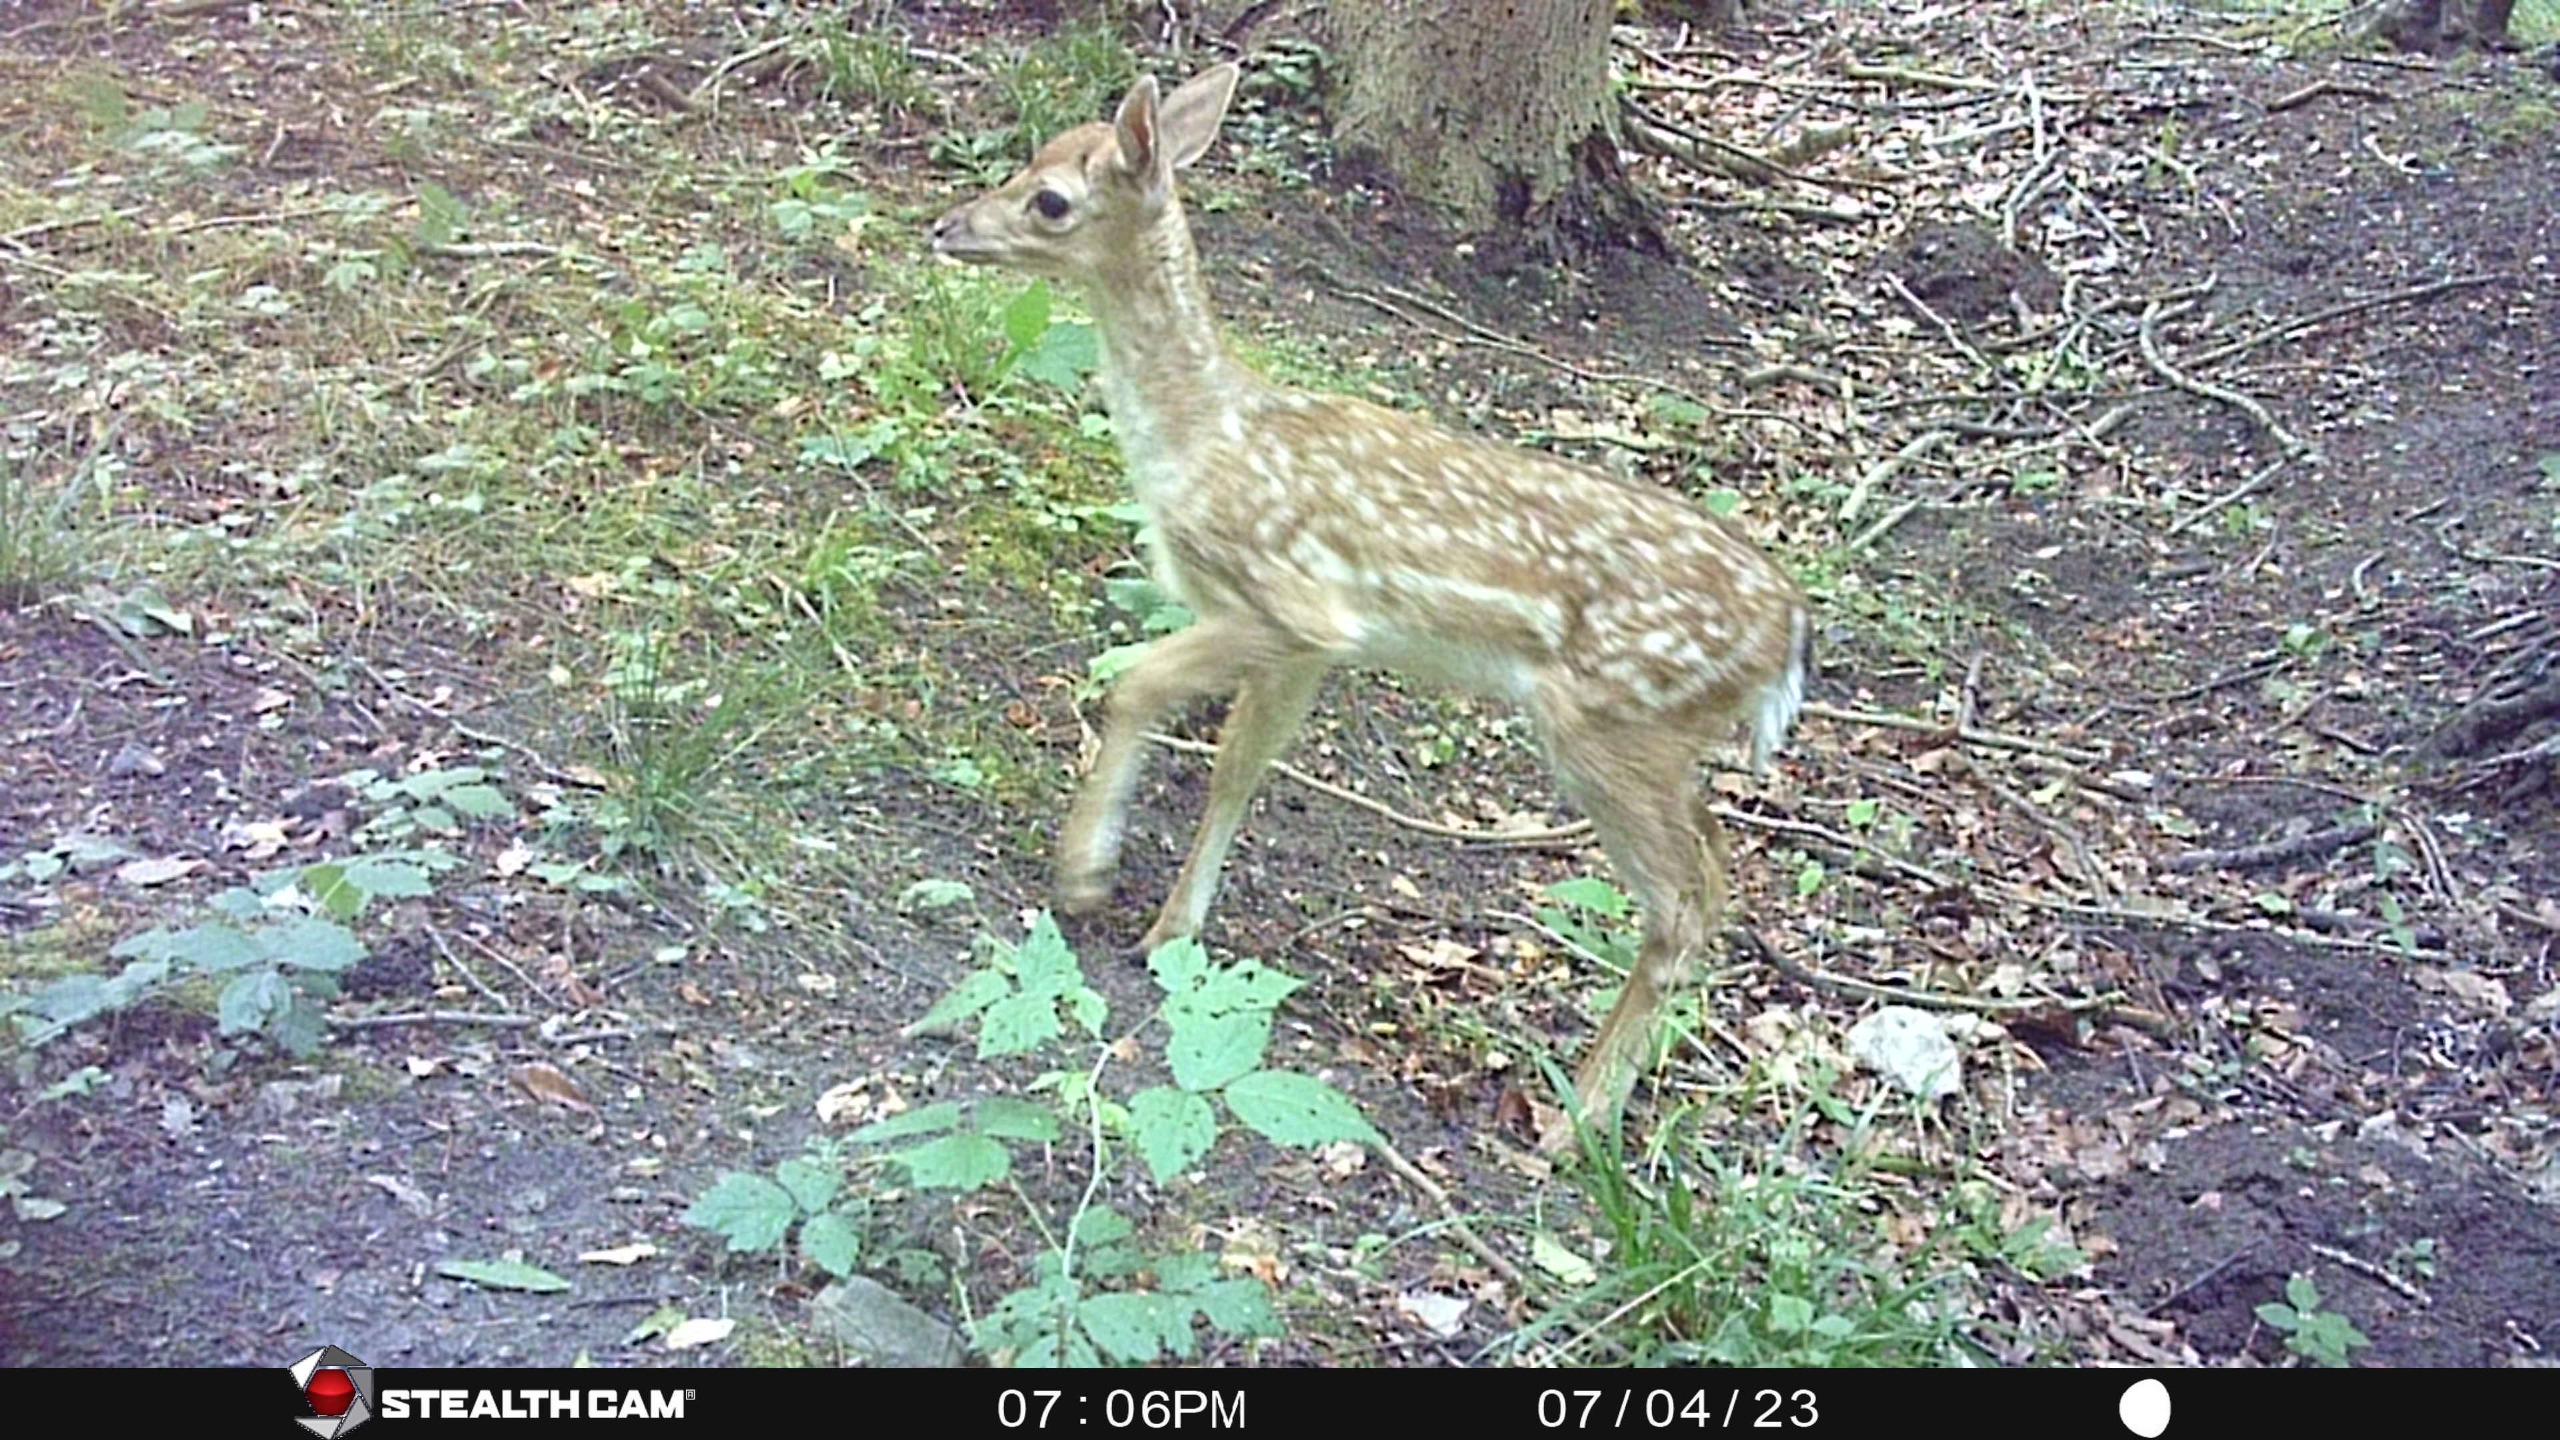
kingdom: Animalia
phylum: Chordata
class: Mammalia
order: Artiodactyla
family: Cervidae
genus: Dama
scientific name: Dama dama
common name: Dådyr
